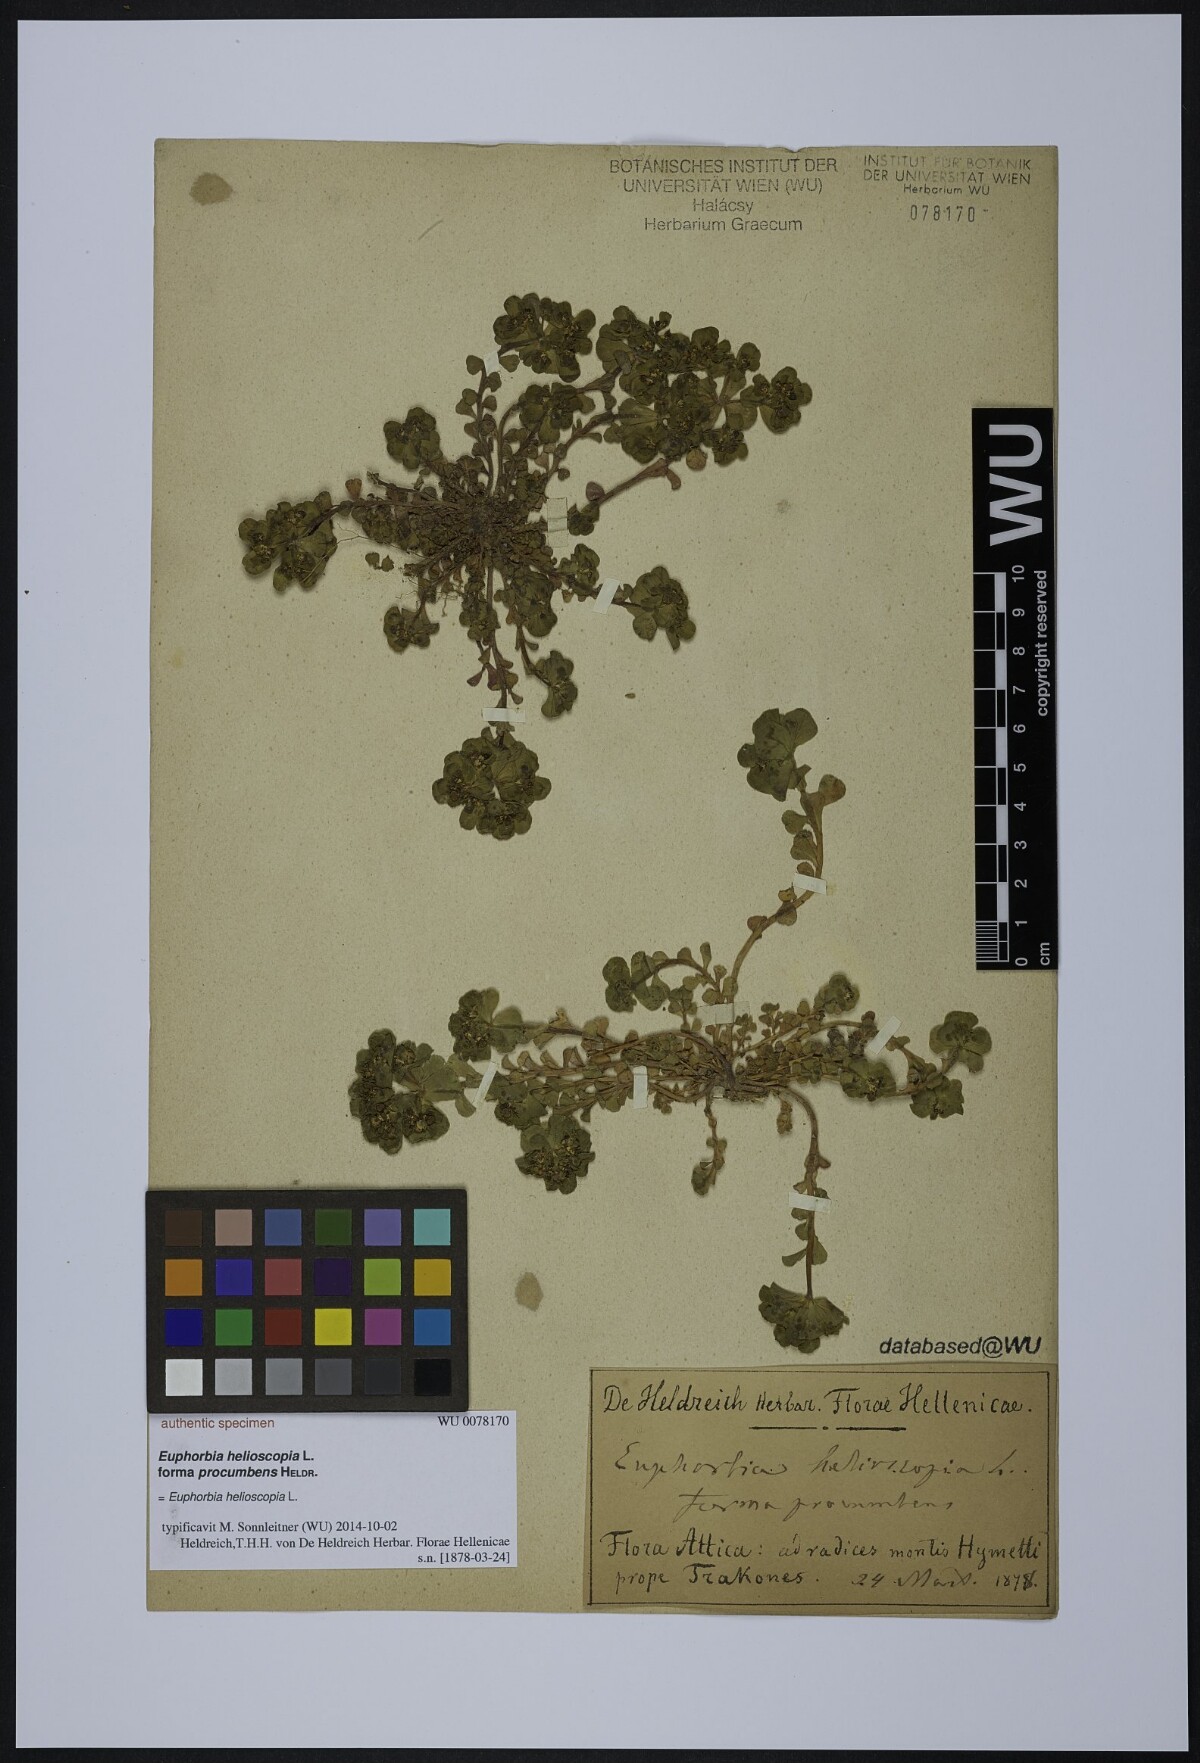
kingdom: Plantae
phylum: Tracheophyta
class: Magnoliopsida
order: Malpighiales
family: Euphorbiaceae
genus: Euphorbia
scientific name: Euphorbia helioscopia
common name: Sun spurge
